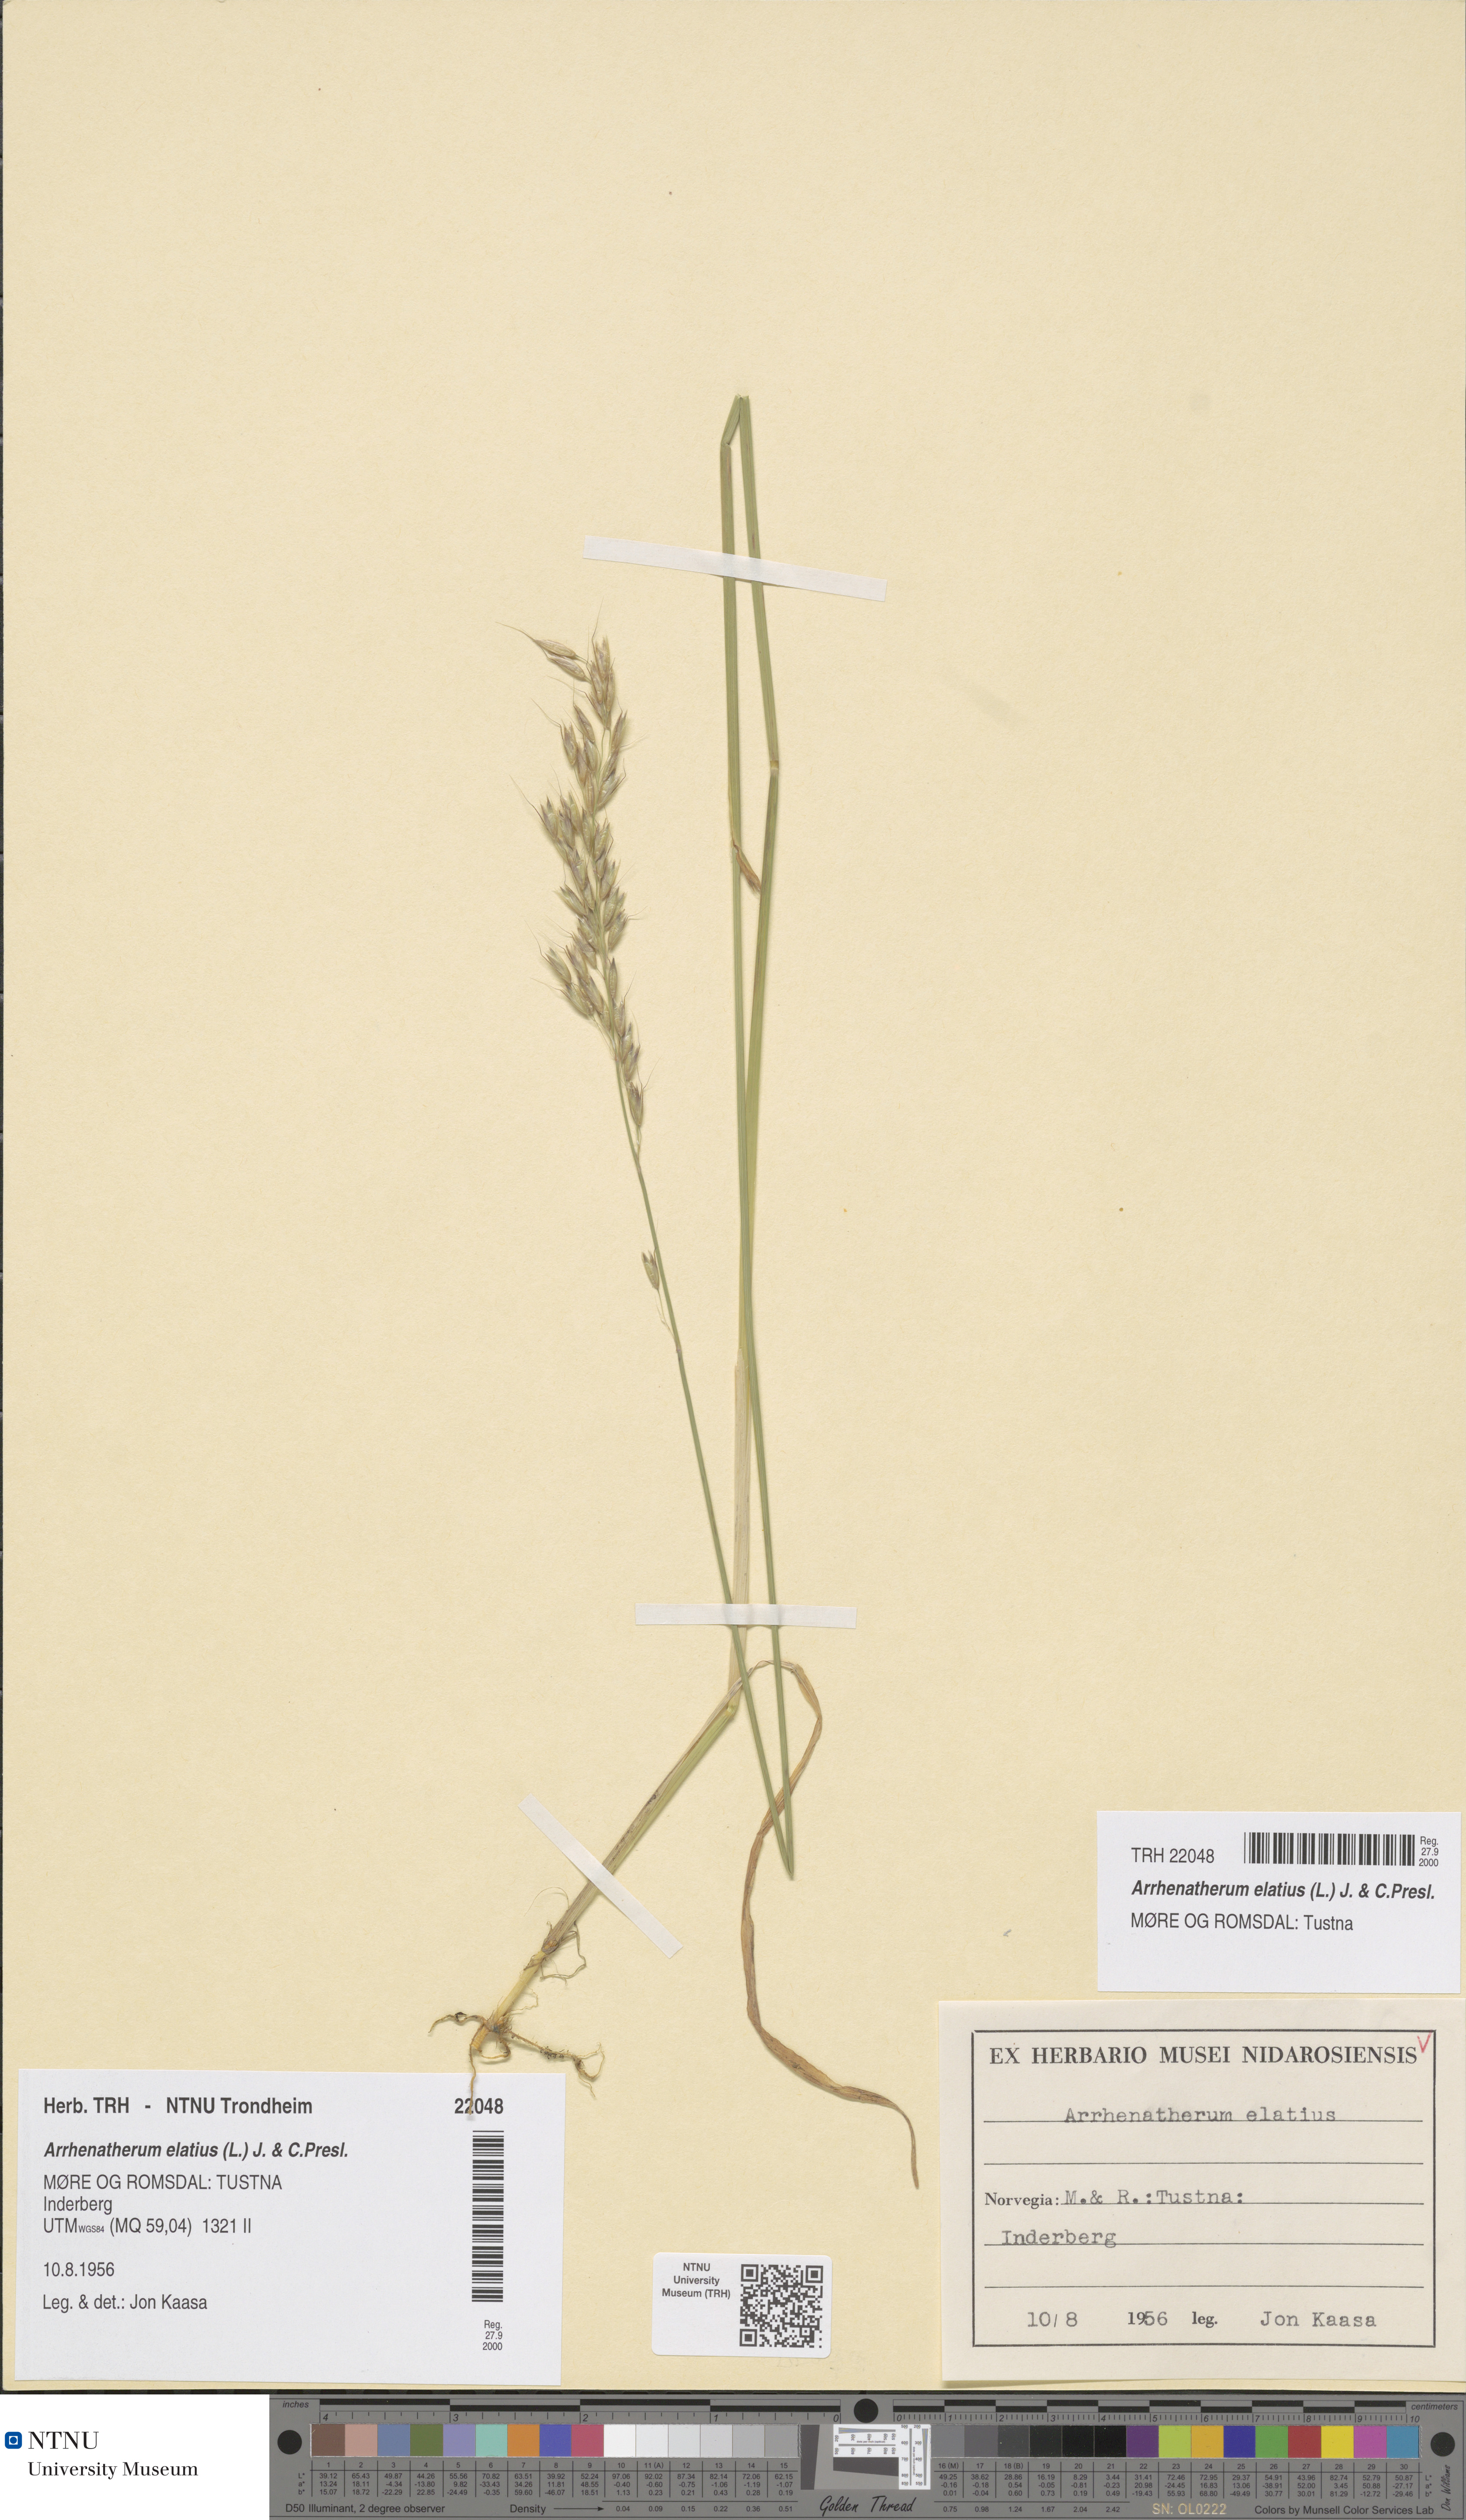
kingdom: Plantae
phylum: Tracheophyta
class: Liliopsida
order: Poales
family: Poaceae
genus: Arrhenatherum
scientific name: Arrhenatherum elatius
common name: Tall oatgrass
